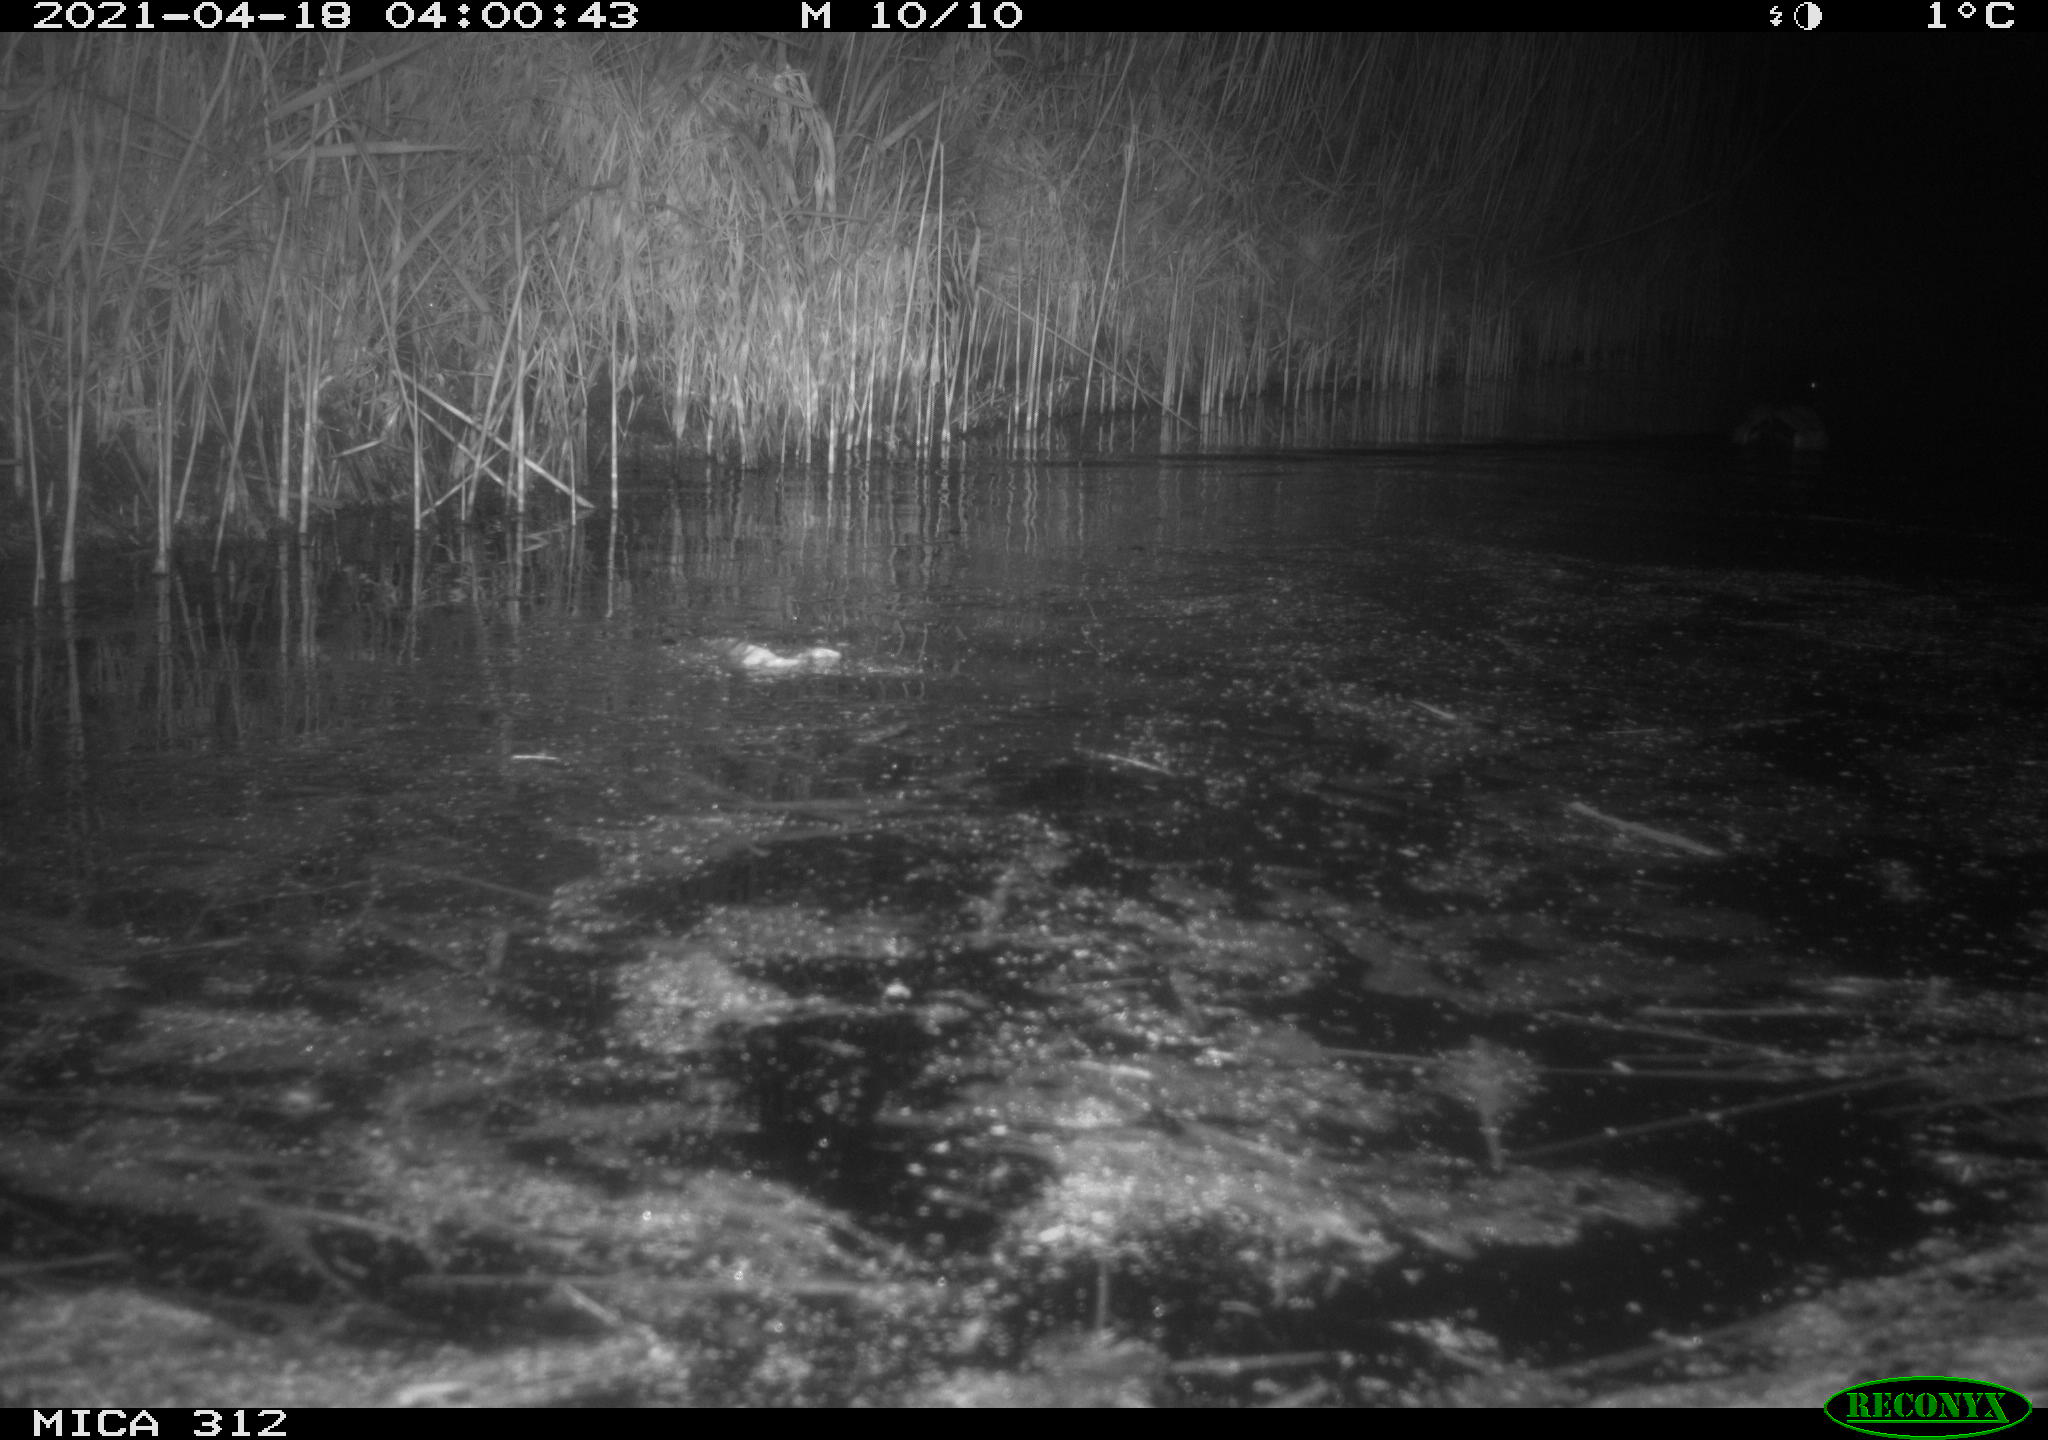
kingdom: Animalia
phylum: Chordata
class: Aves
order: Anseriformes
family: Anatidae
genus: Anas
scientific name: Anas platyrhynchos
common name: Mallard
